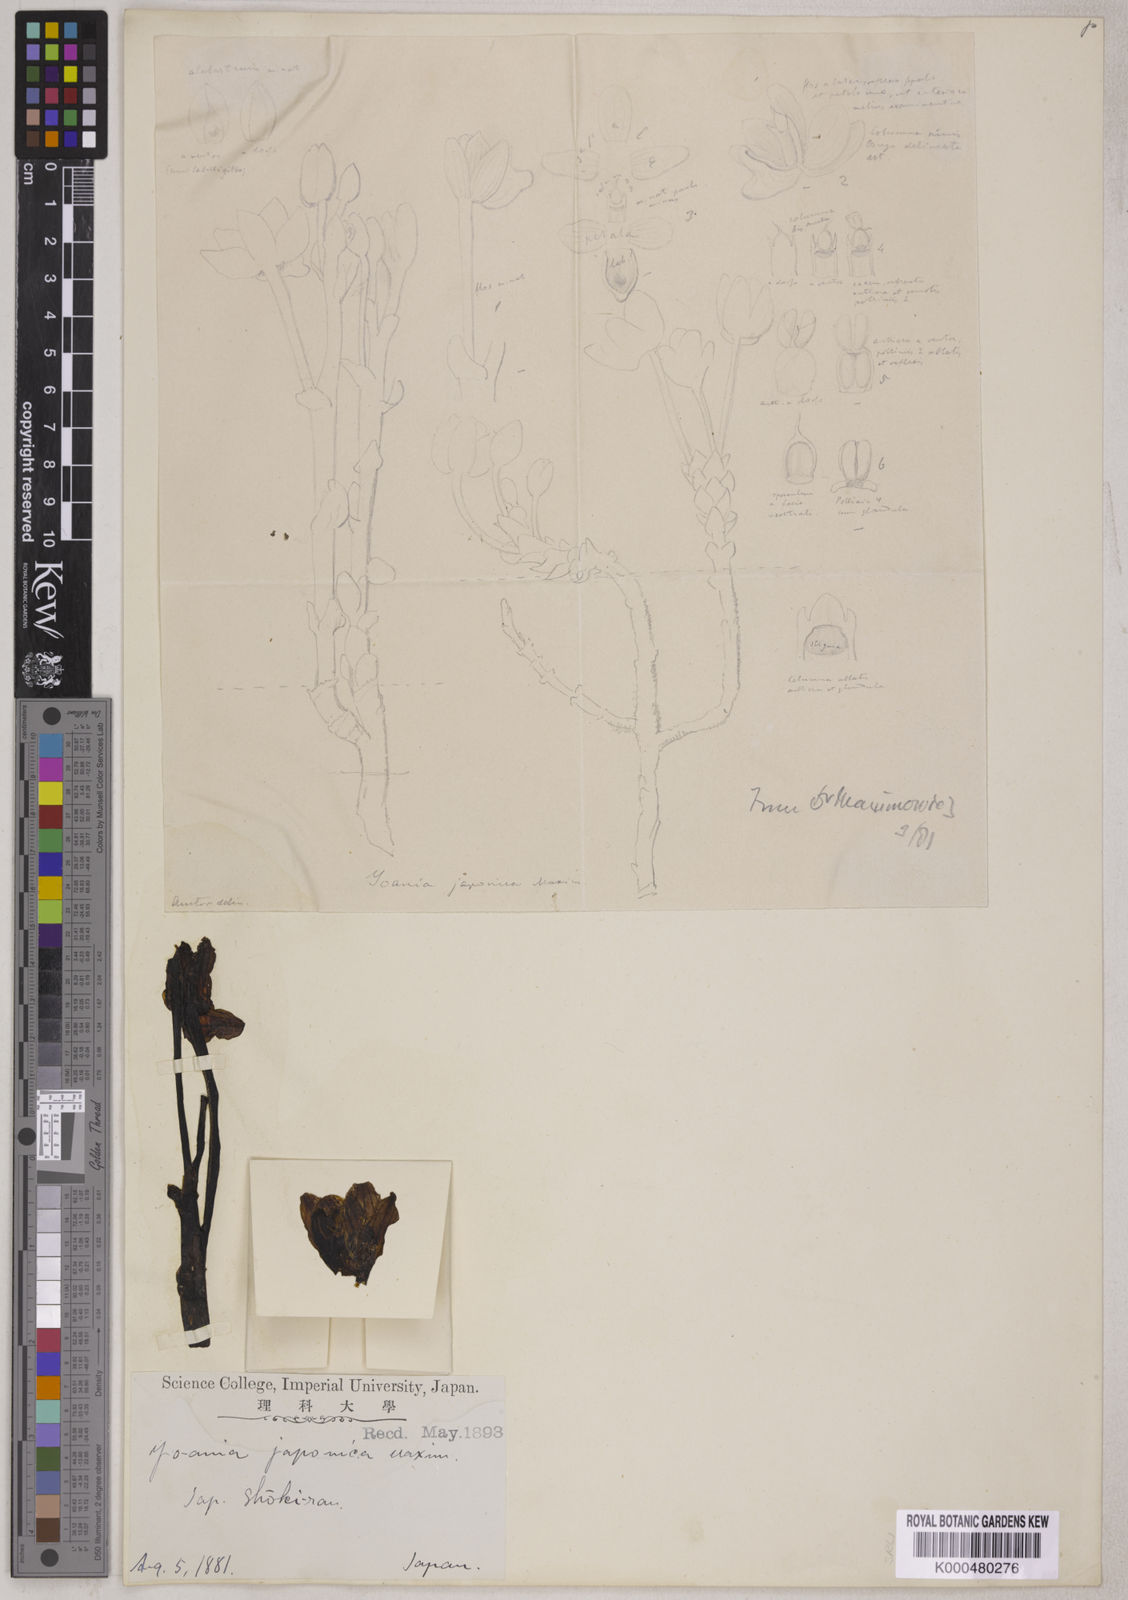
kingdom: Plantae
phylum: Tracheophyta
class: Liliopsida
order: Asparagales
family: Orchidaceae
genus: Yoania
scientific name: Yoania japonica
